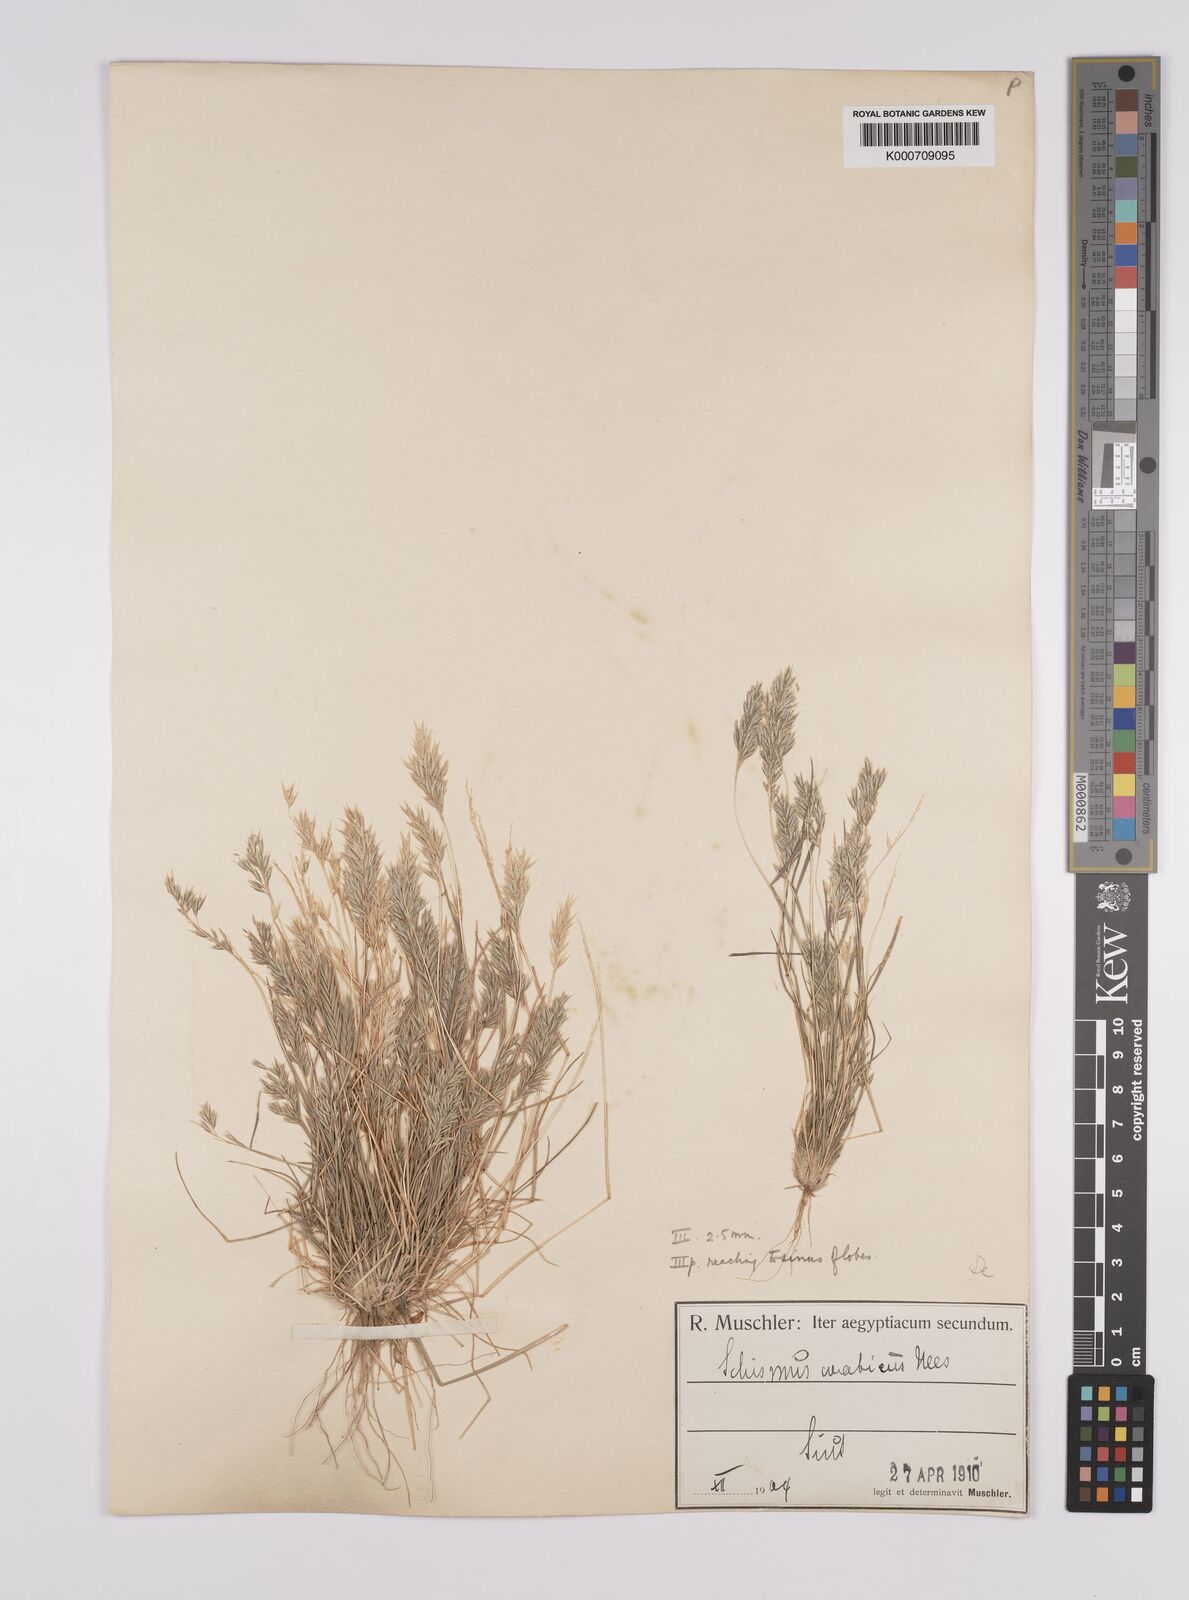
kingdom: Plantae
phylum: Tracheophyta
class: Liliopsida
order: Poales
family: Poaceae
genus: Schismus
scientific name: Schismus arabicus
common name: Arabian schismus
